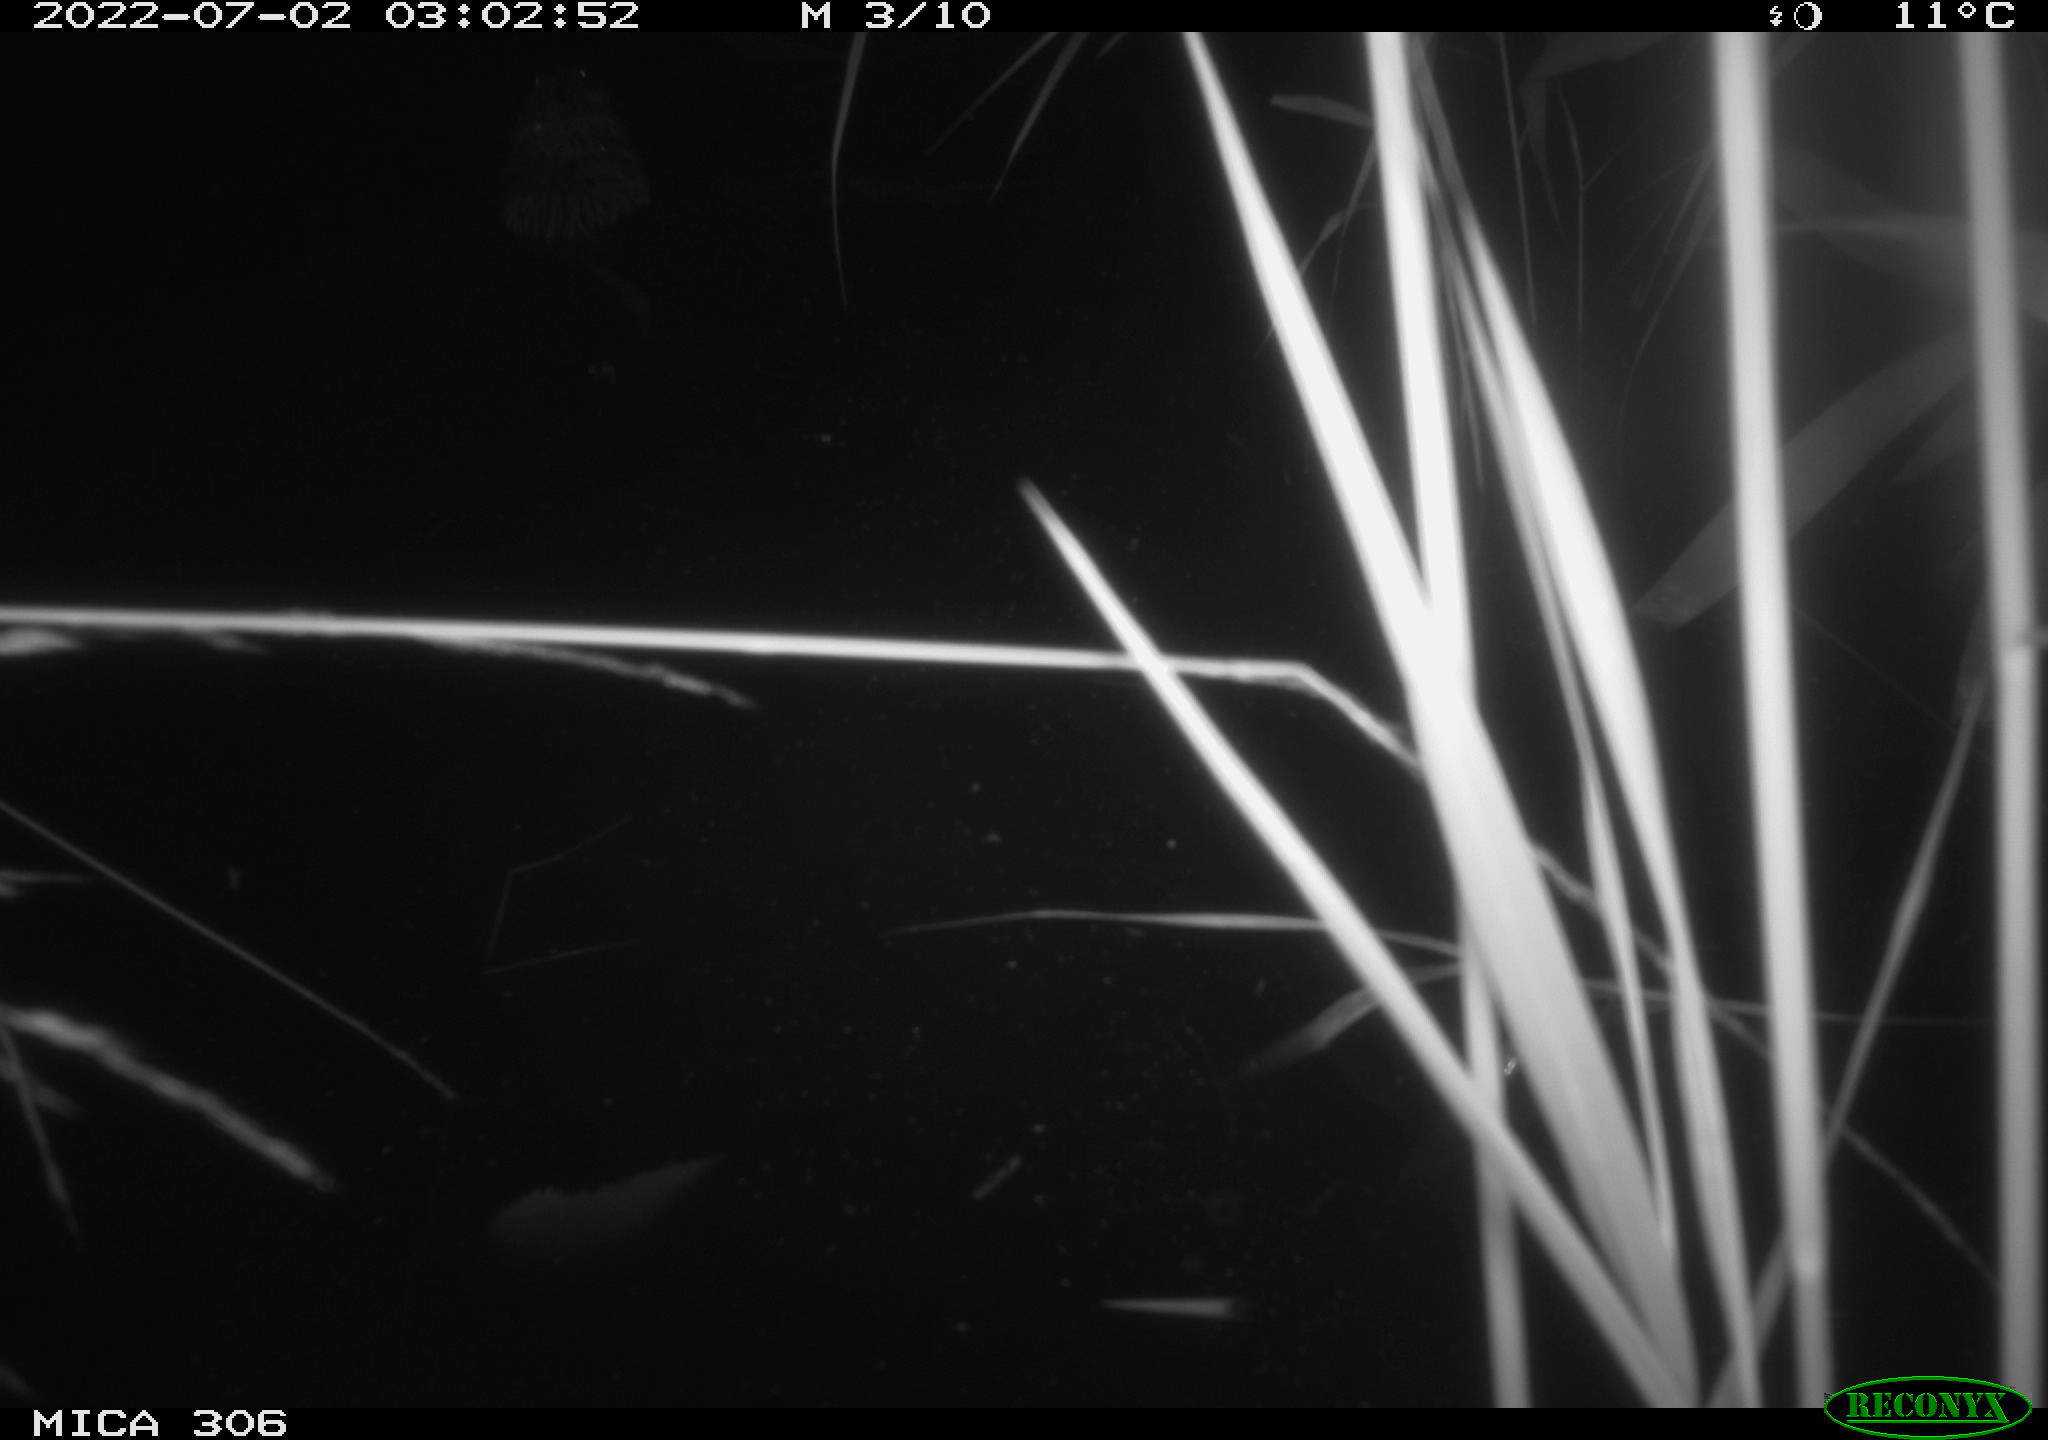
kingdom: Animalia
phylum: Chordata
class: Mammalia
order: Rodentia
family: Cricetidae
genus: Ondatra
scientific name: Ondatra zibethicus
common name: Muskrat
